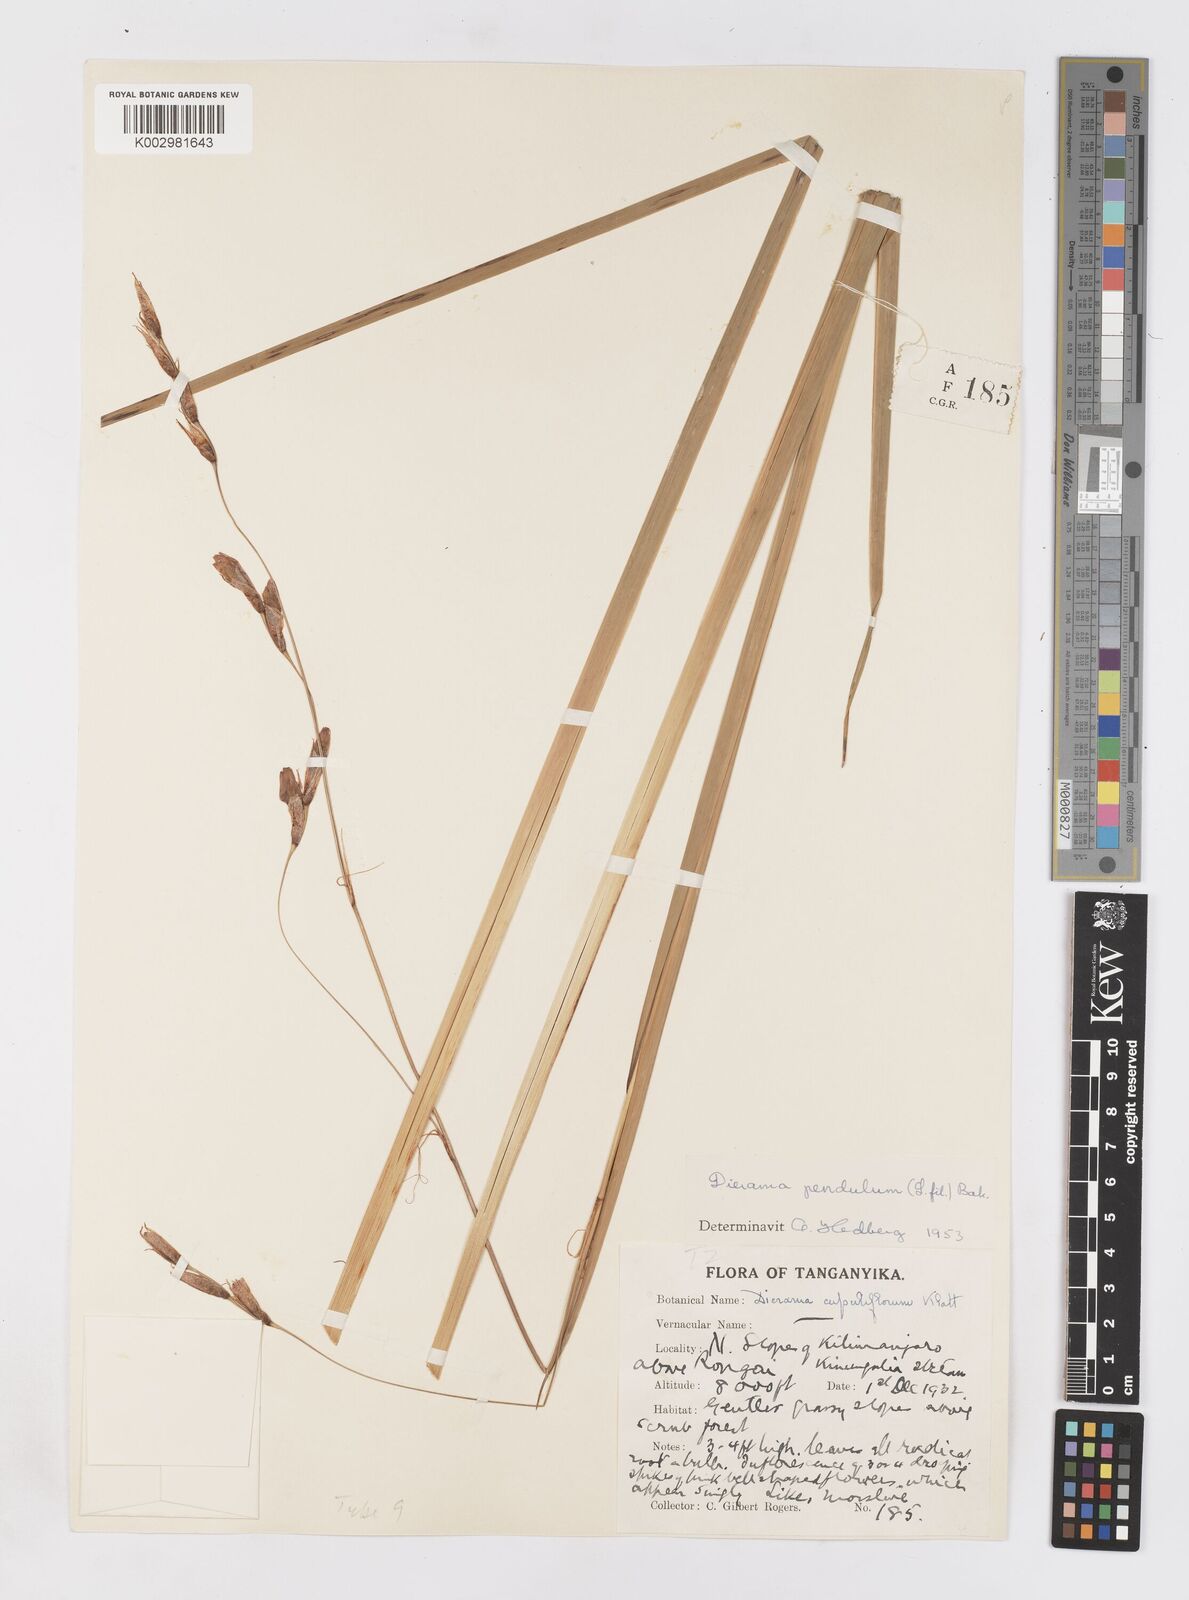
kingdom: Plantae
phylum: Tracheophyta
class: Liliopsida
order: Asparagales
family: Iridaceae
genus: Dierama
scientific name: Dierama cupuliflorum
